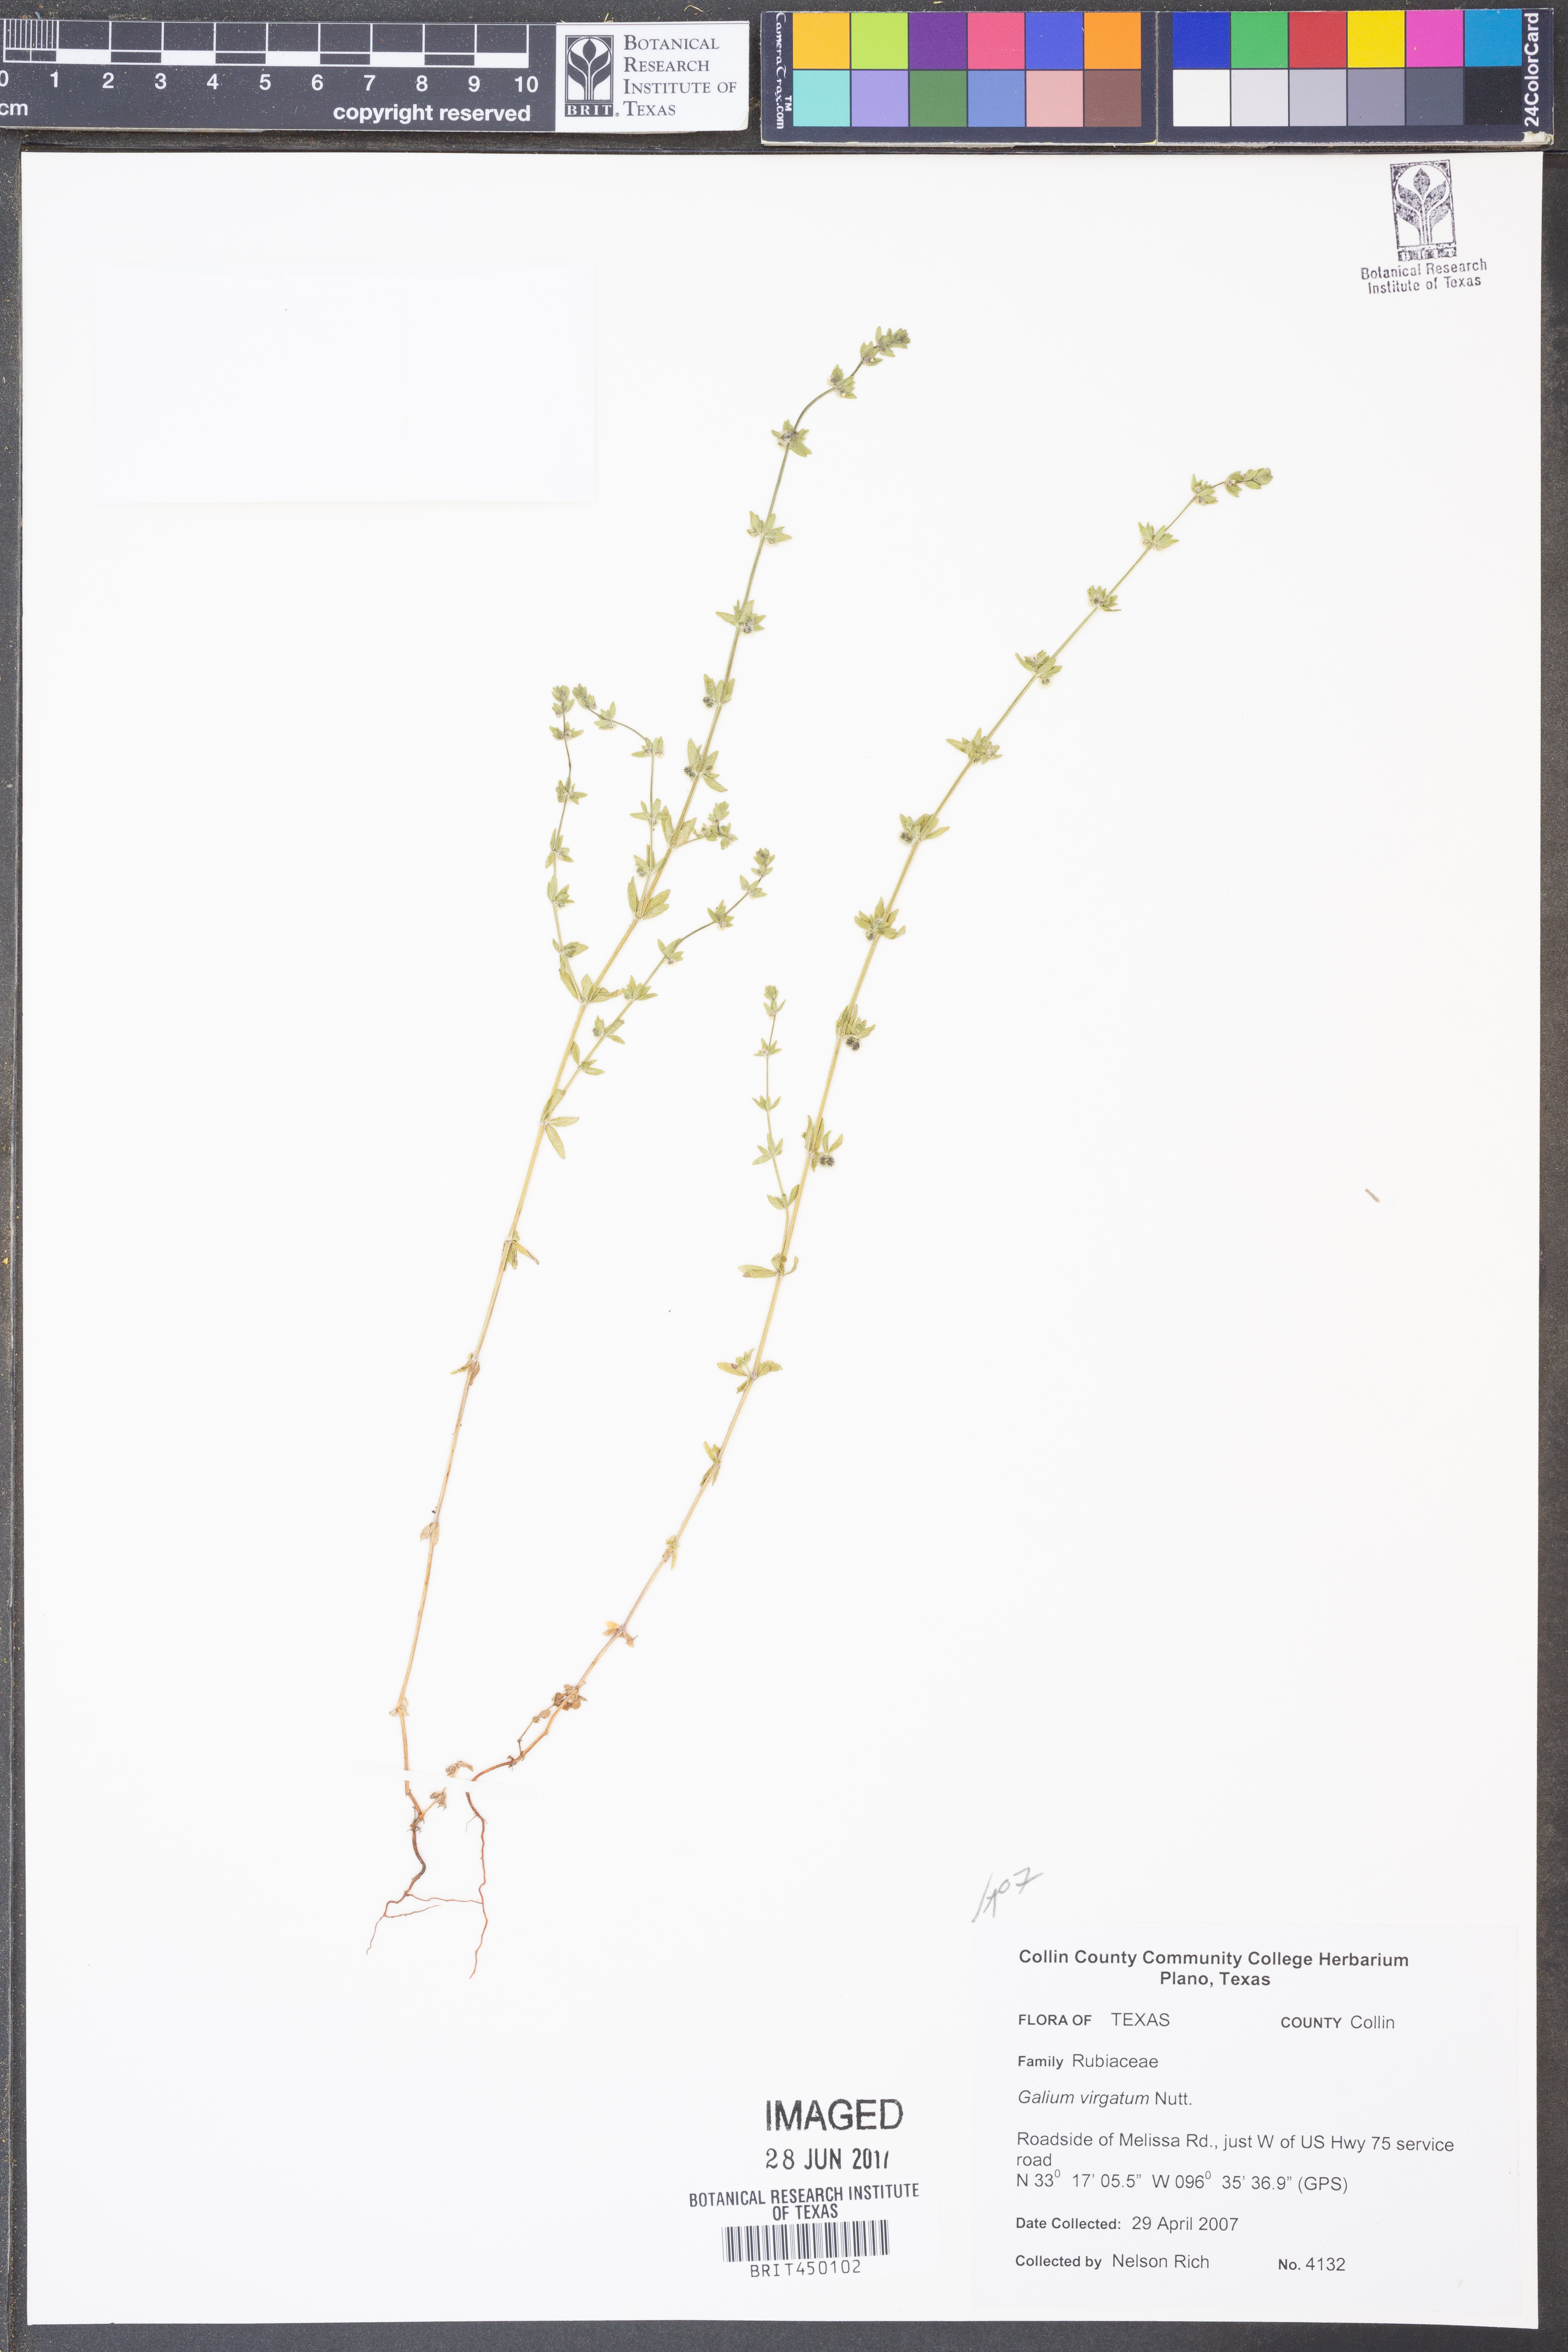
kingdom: Plantae
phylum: Tracheophyta
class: Magnoliopsida
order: Gentianales
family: Rubiaceae
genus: Galium
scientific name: Galium virgatum
